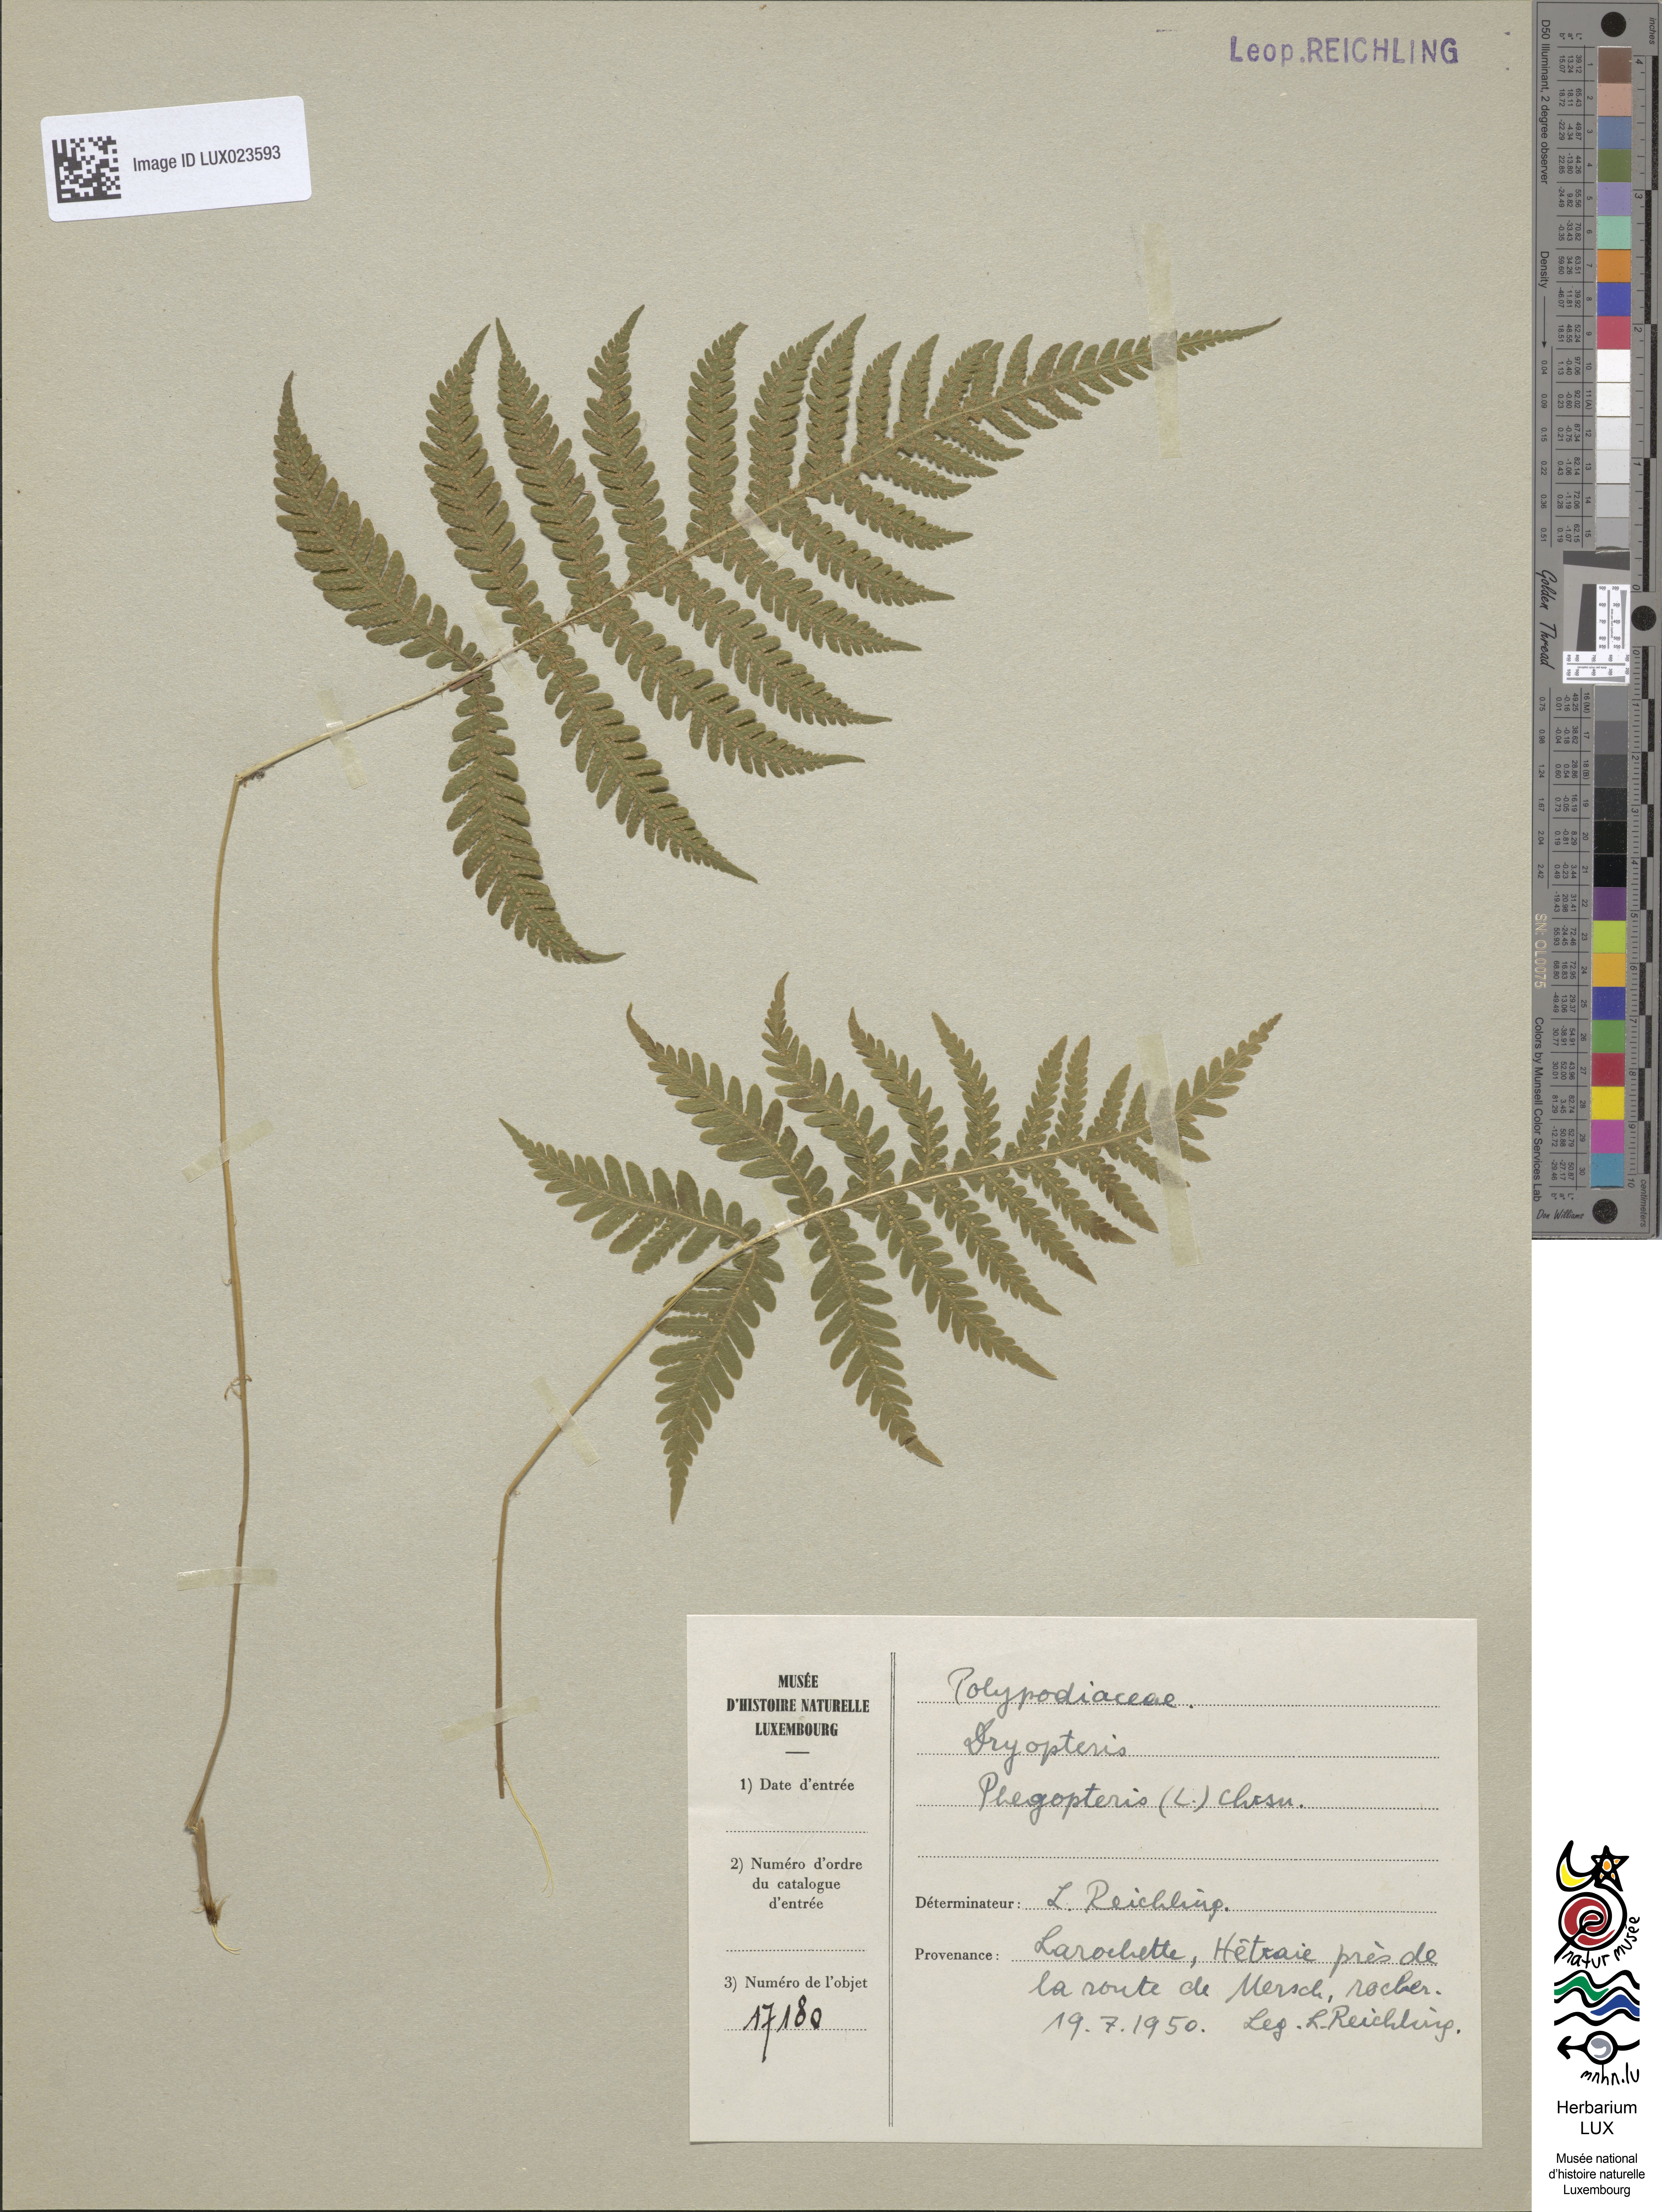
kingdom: Plantae
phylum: Tracheophyta
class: Polypodiopsida
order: Polypodiales
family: Thelypteridaceae
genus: Phegopteris
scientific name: Phegopteris connectilis
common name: Beech fern
